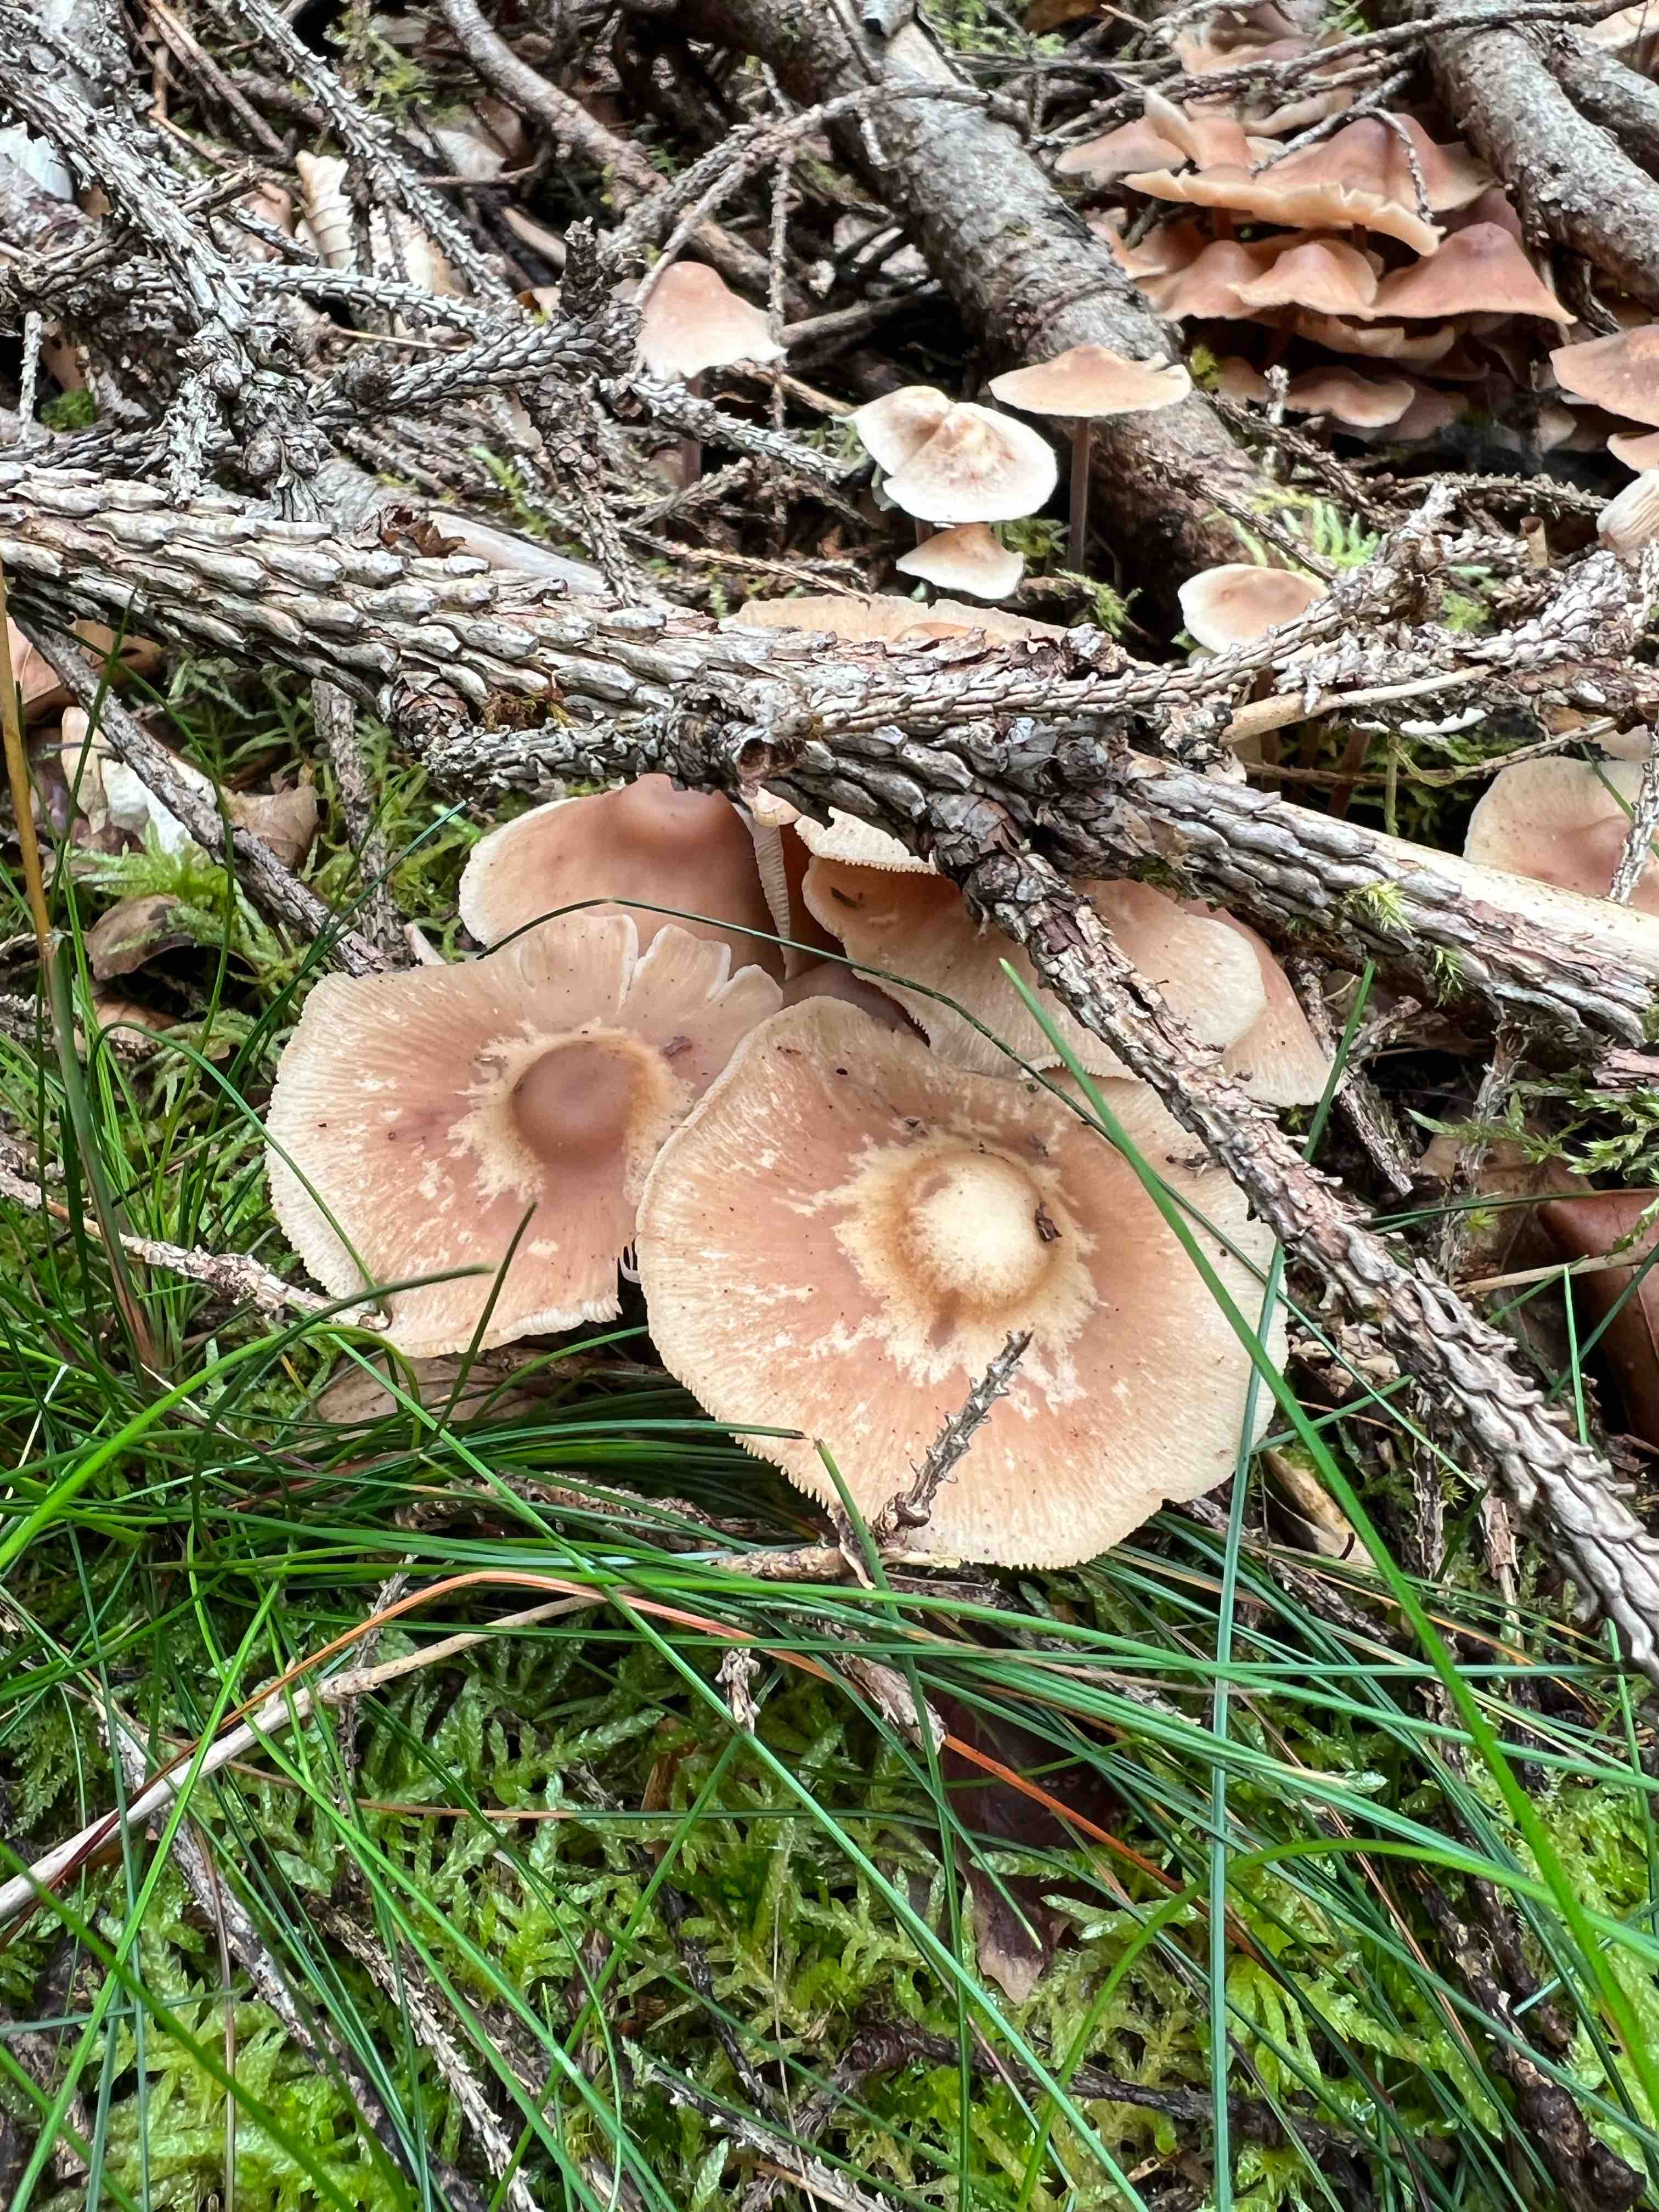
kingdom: Fungi
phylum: Basidiomycota
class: Agaricomycetes
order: Agaricales
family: Omphalotaceae
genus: Collybiopsis
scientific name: Collybiopsis confluens
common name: knippe-fladhat
